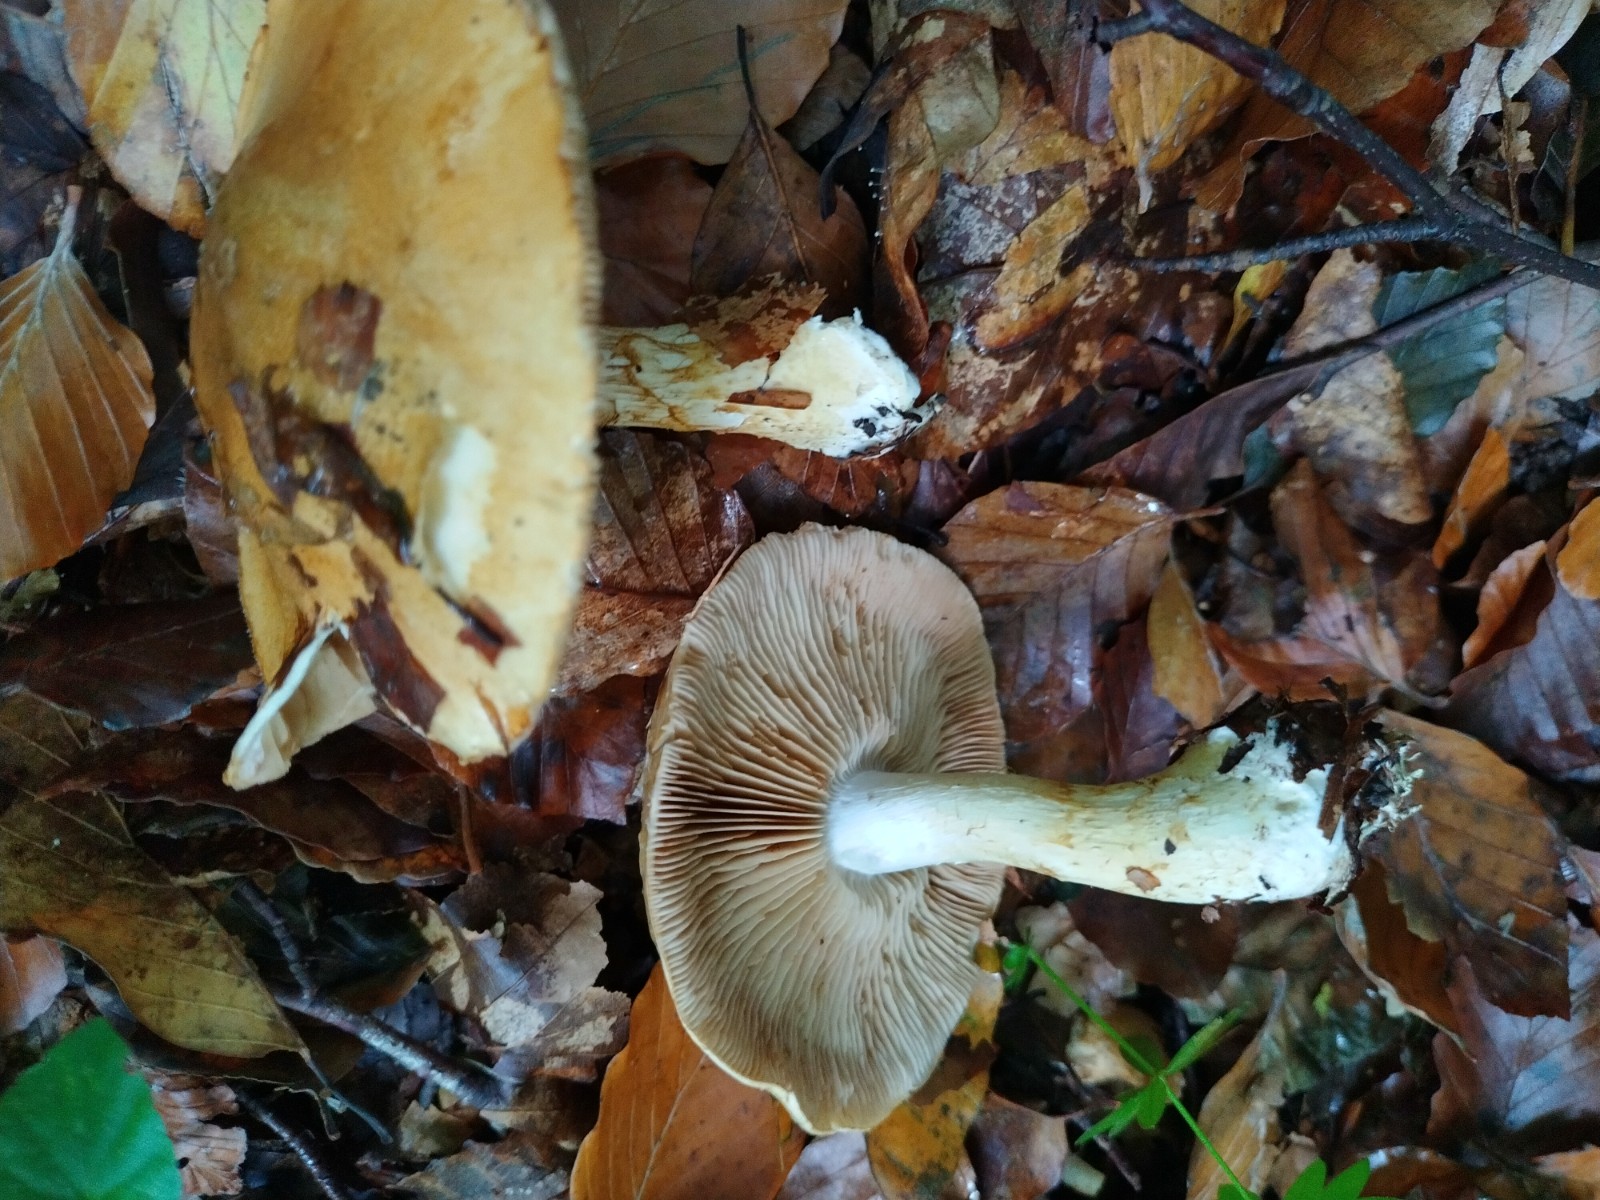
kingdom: Fungi
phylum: Basidiomycota
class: Agaricomycetes
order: Agaricales
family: Cortinariaceae
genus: Phlegmacium
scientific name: Phlegmacium cliduchus
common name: majs-slørhat
